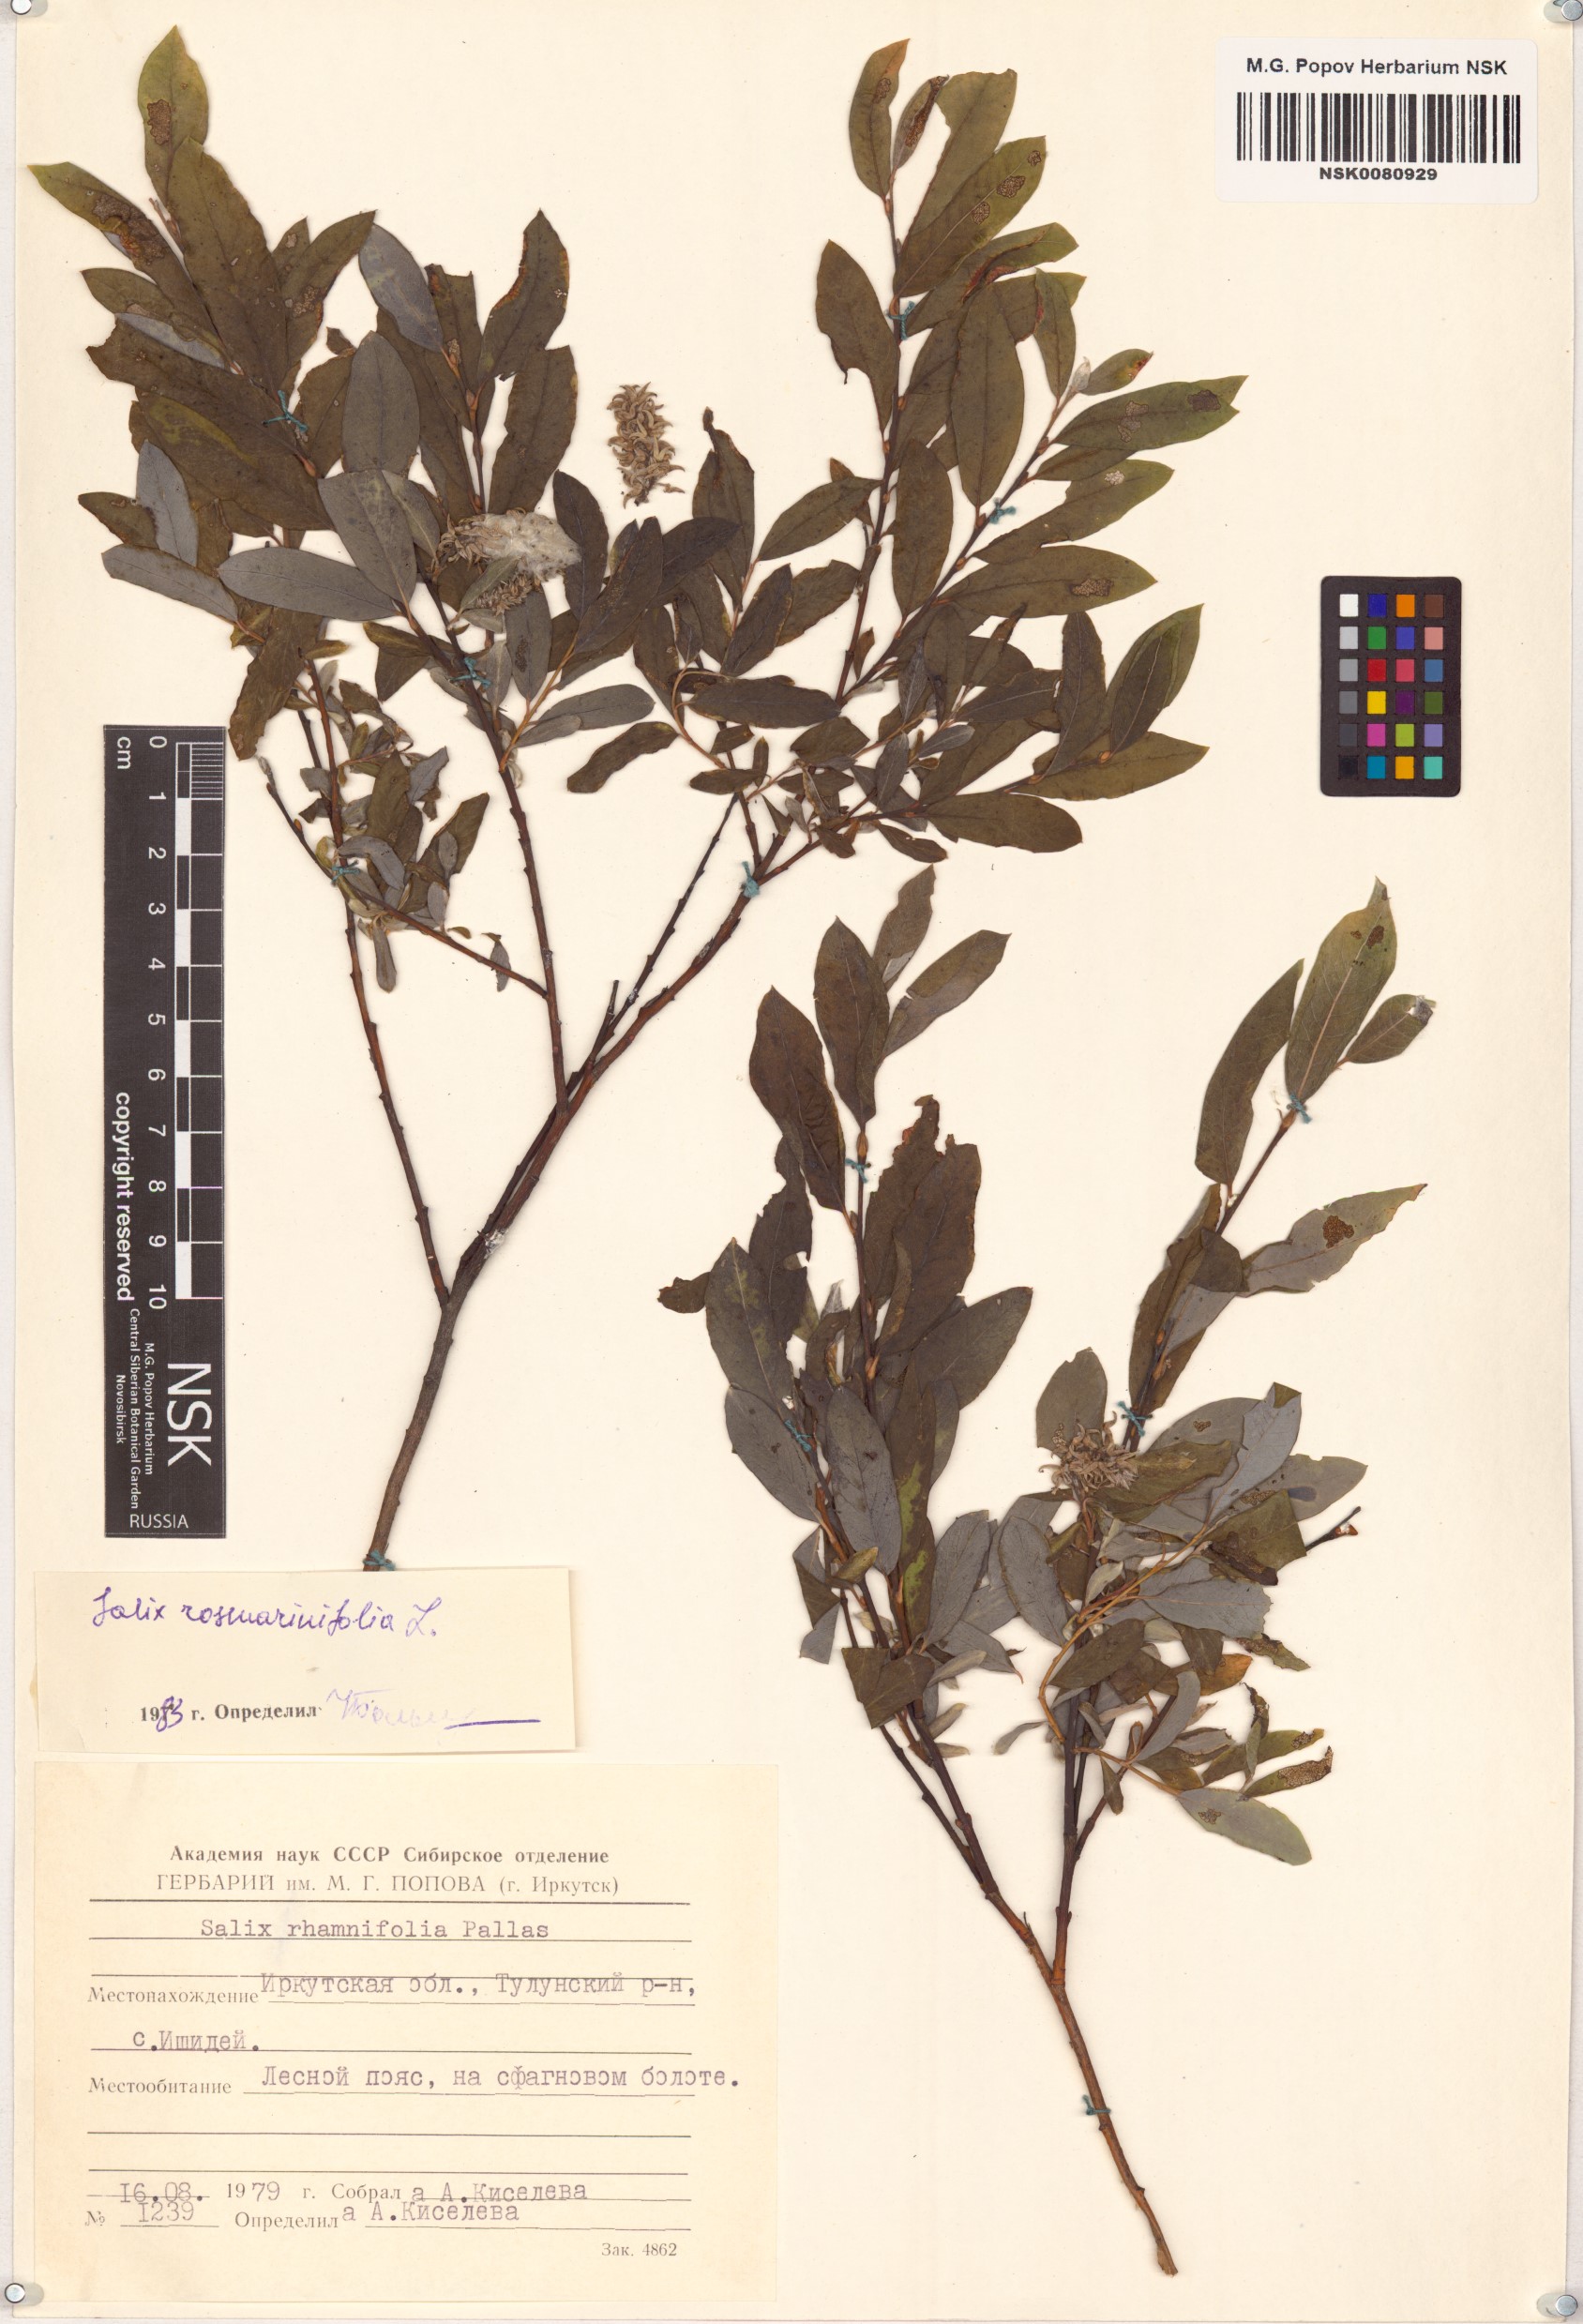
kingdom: Plantae
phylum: Tracheophyta
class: Magnoliopsida
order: Malpighiales
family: Salicaceae
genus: Salix
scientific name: Salix rosmarinifolia
